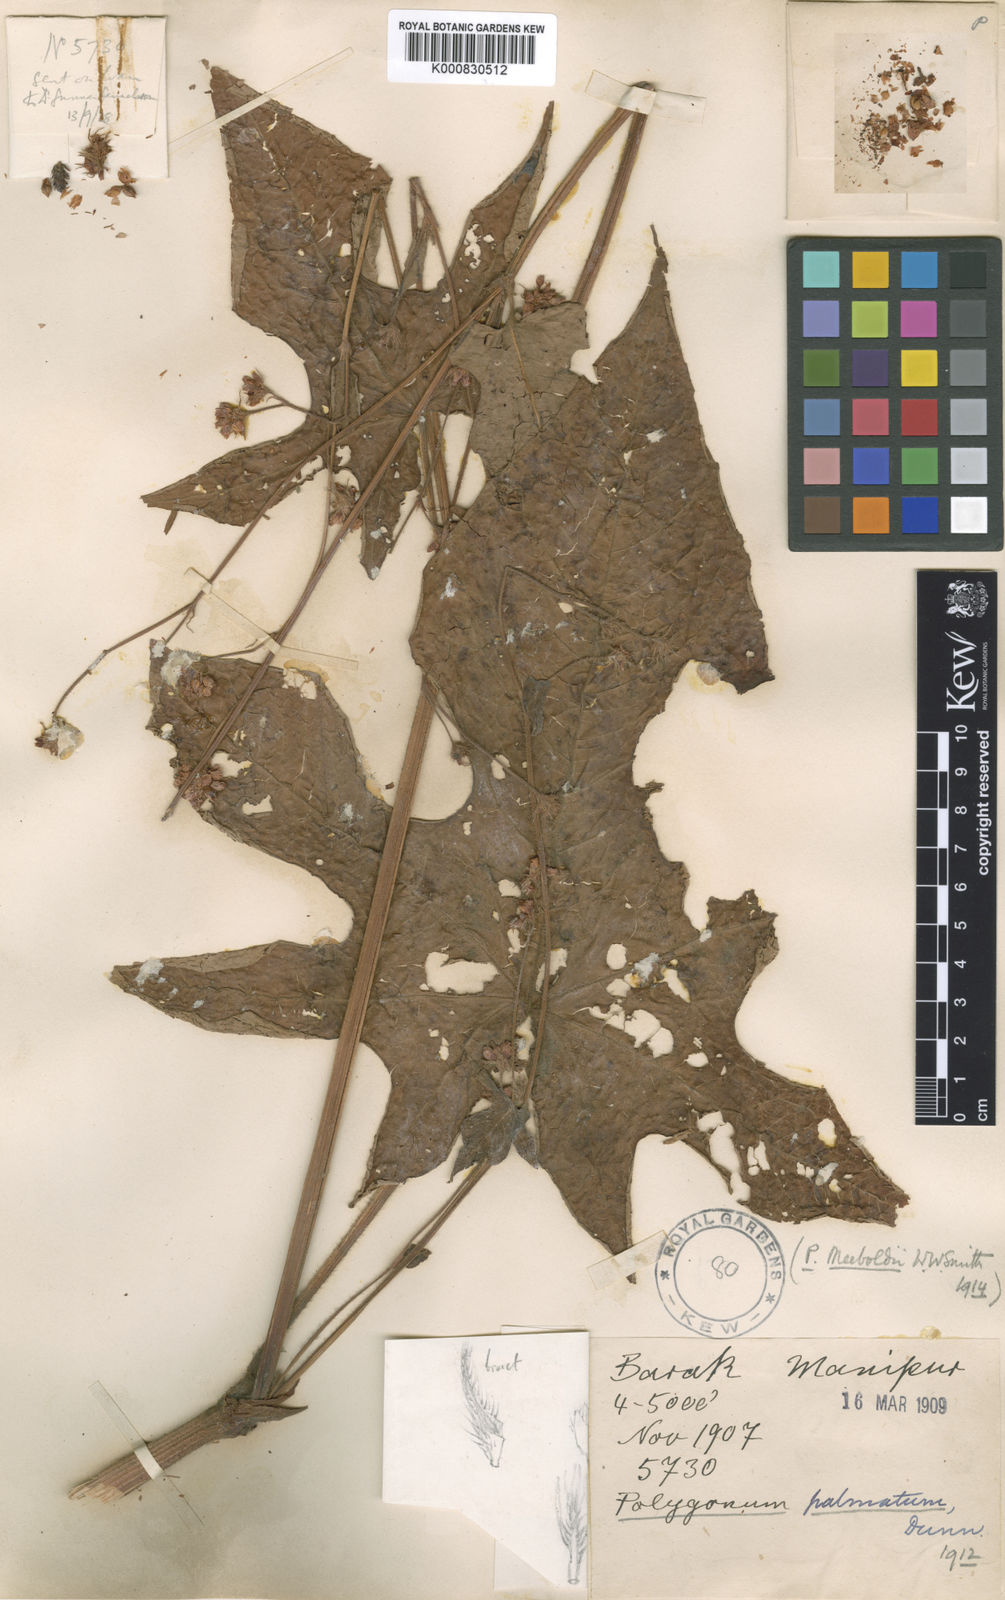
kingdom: Plantae
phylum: Tracheophyta
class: Magnoliopsida
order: Caryophyllales
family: Polygonaceae
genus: Persicaria
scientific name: Persicaria palmata
